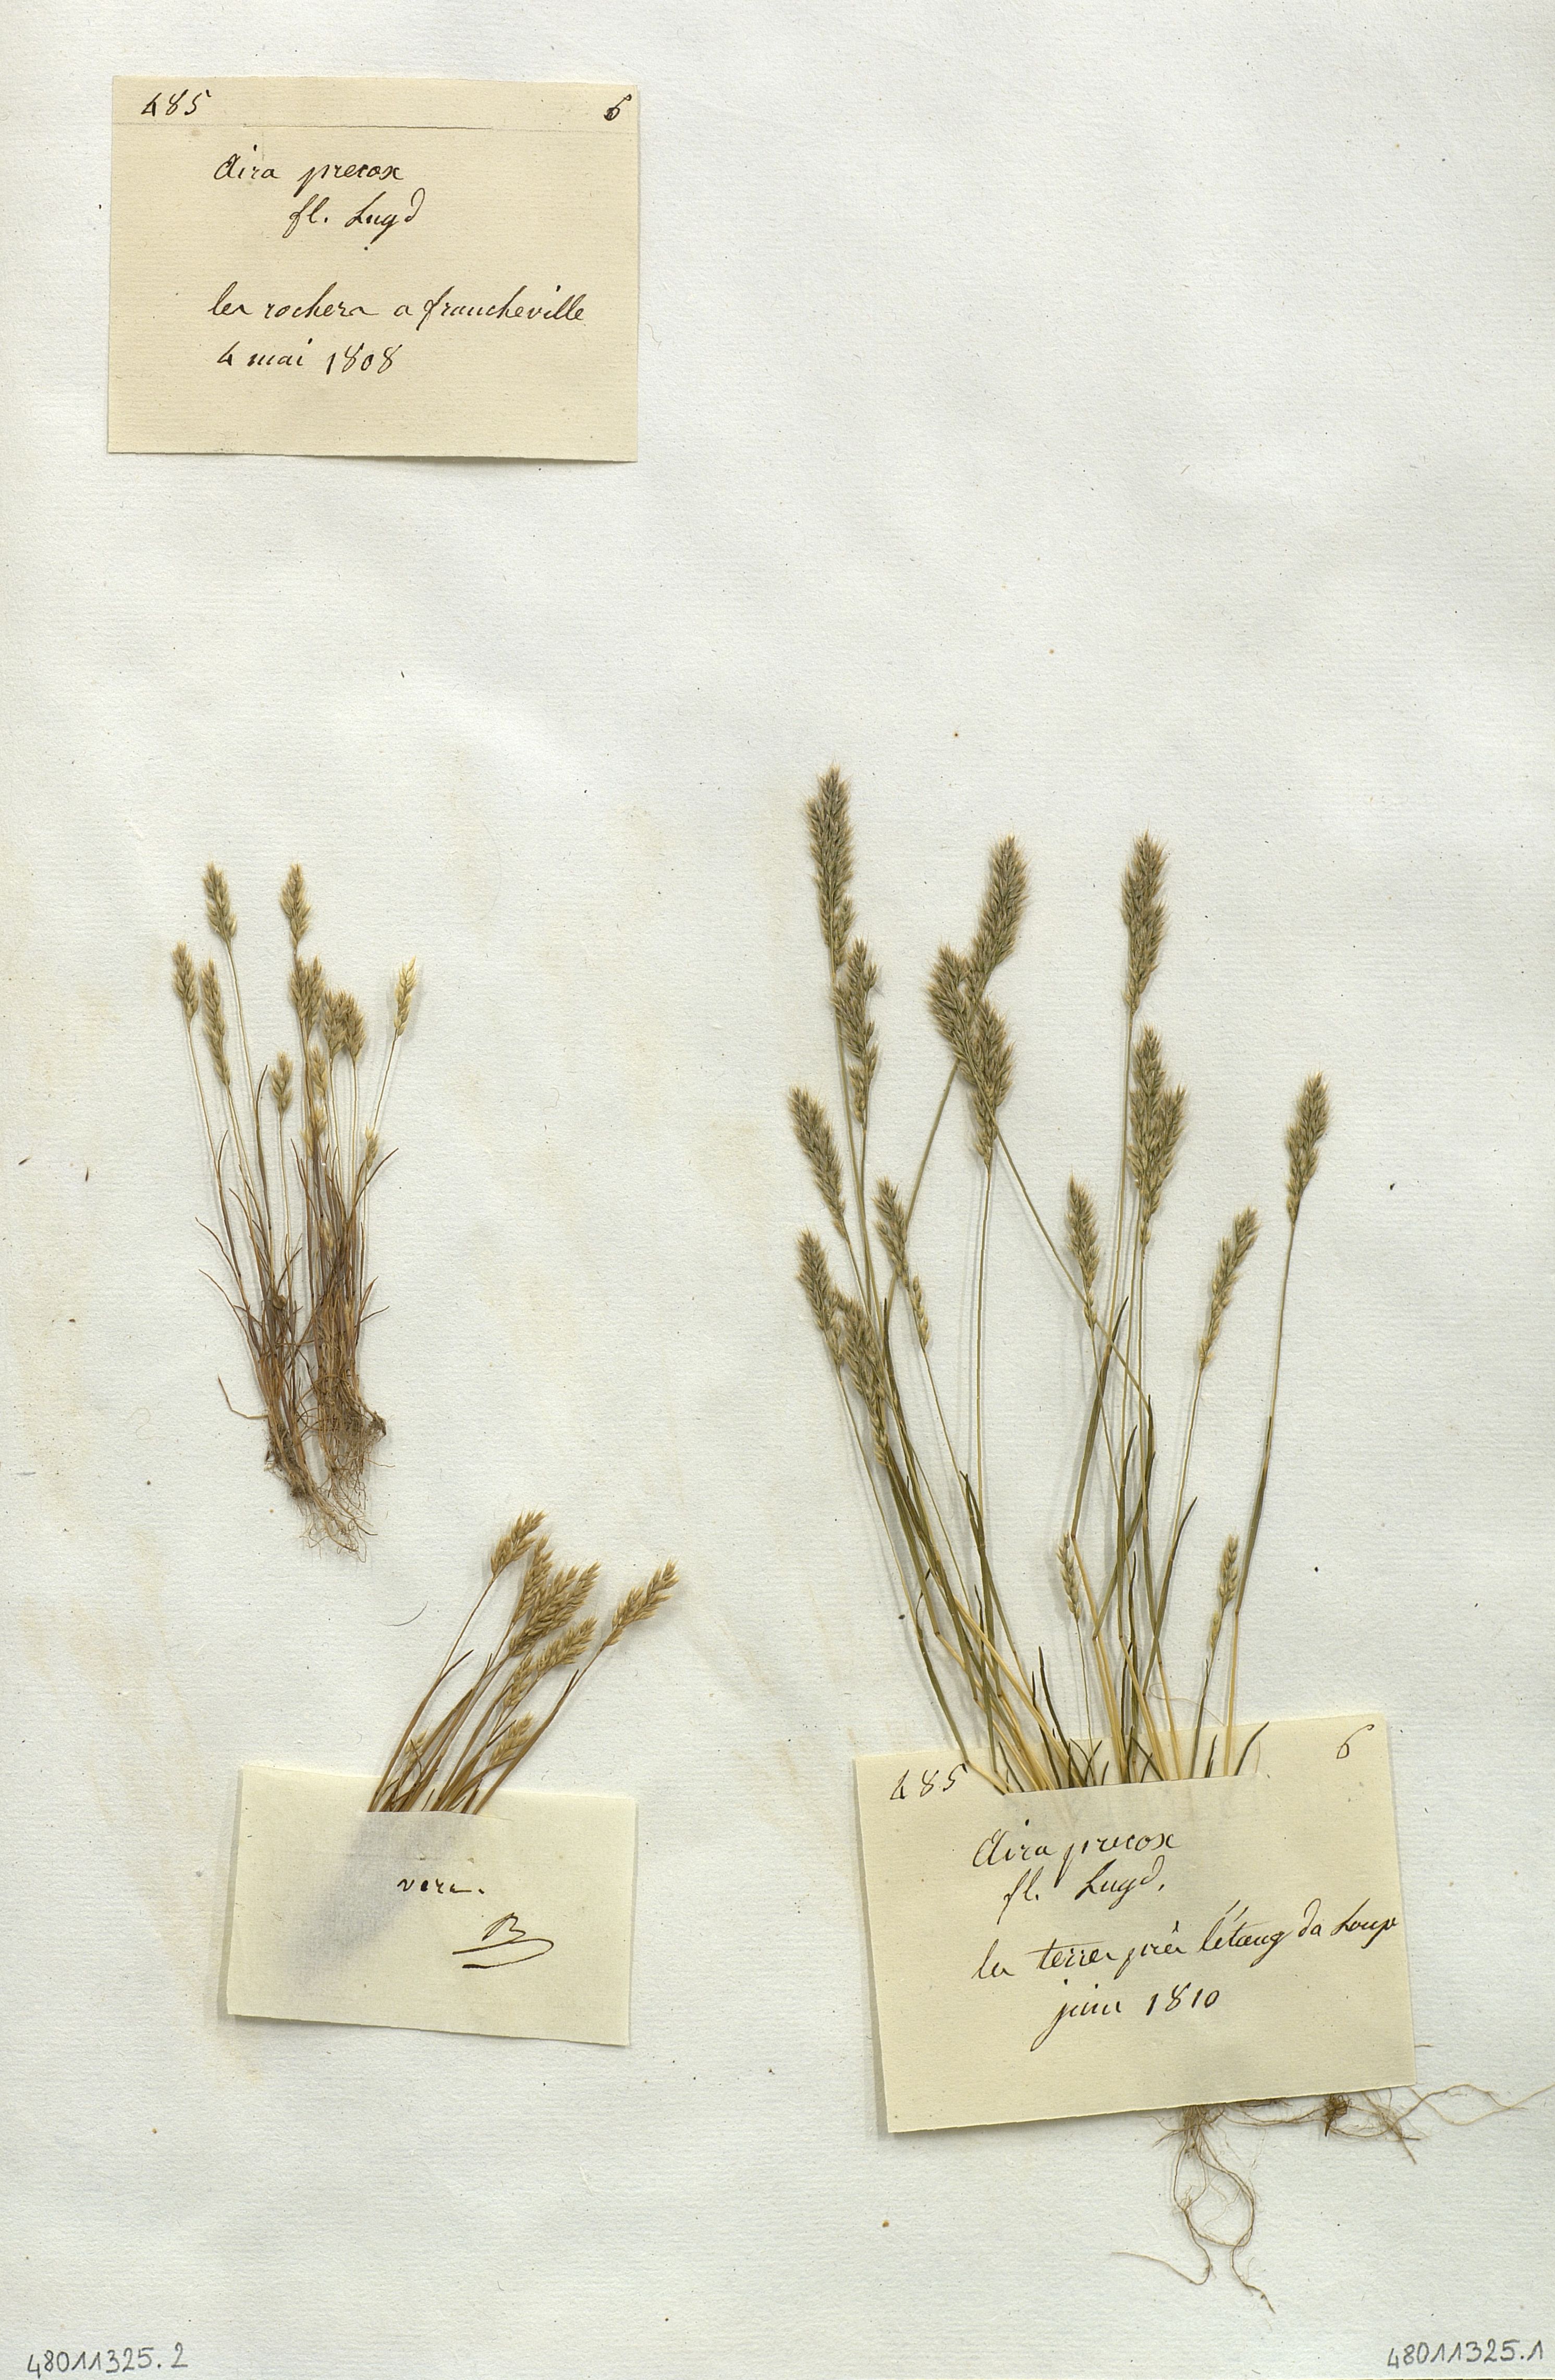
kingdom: Plantae
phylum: Tracheophyta
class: Liliopsida
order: Poales
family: Poaceae
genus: Aira
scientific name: Aira
